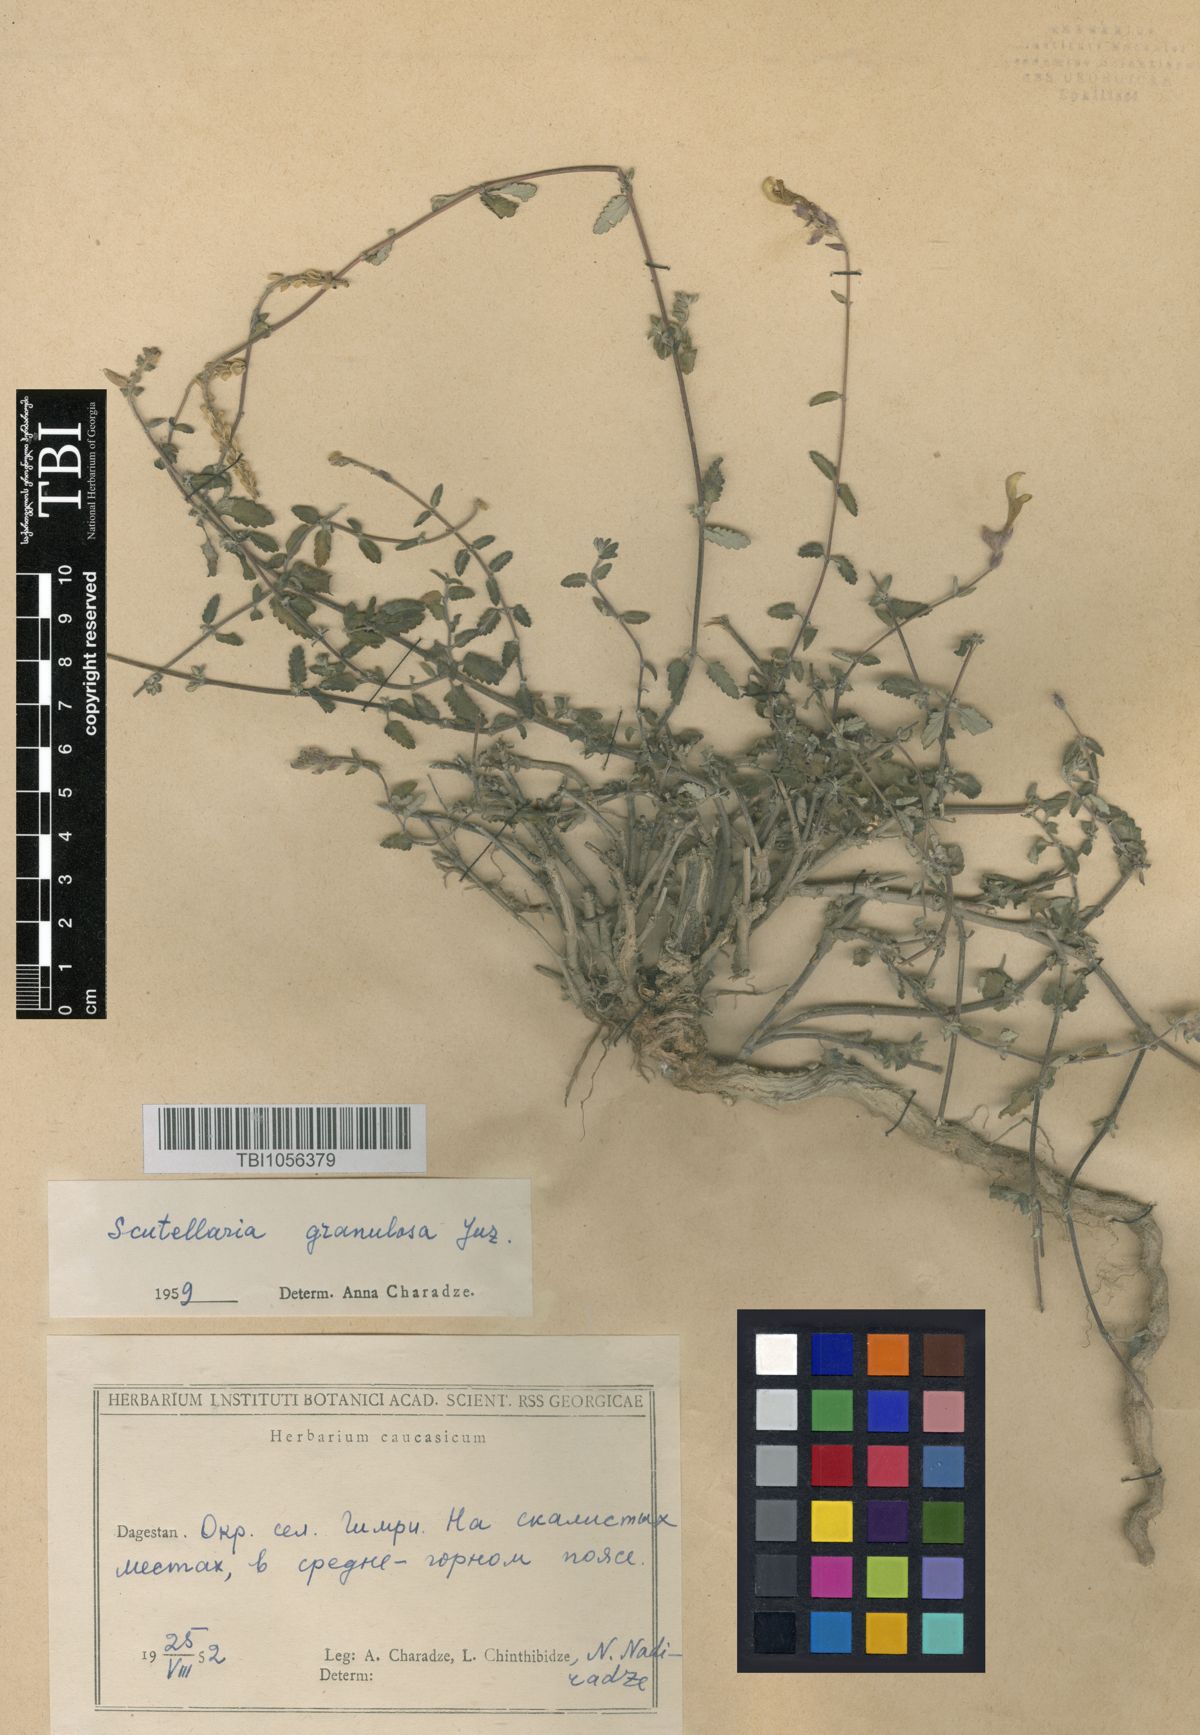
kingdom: Plantae
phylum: Tracheophyta
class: Magnoliopsida
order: Lamiales
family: Lamiaceae
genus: Scutellaria
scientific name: Scutellaria granulosa
